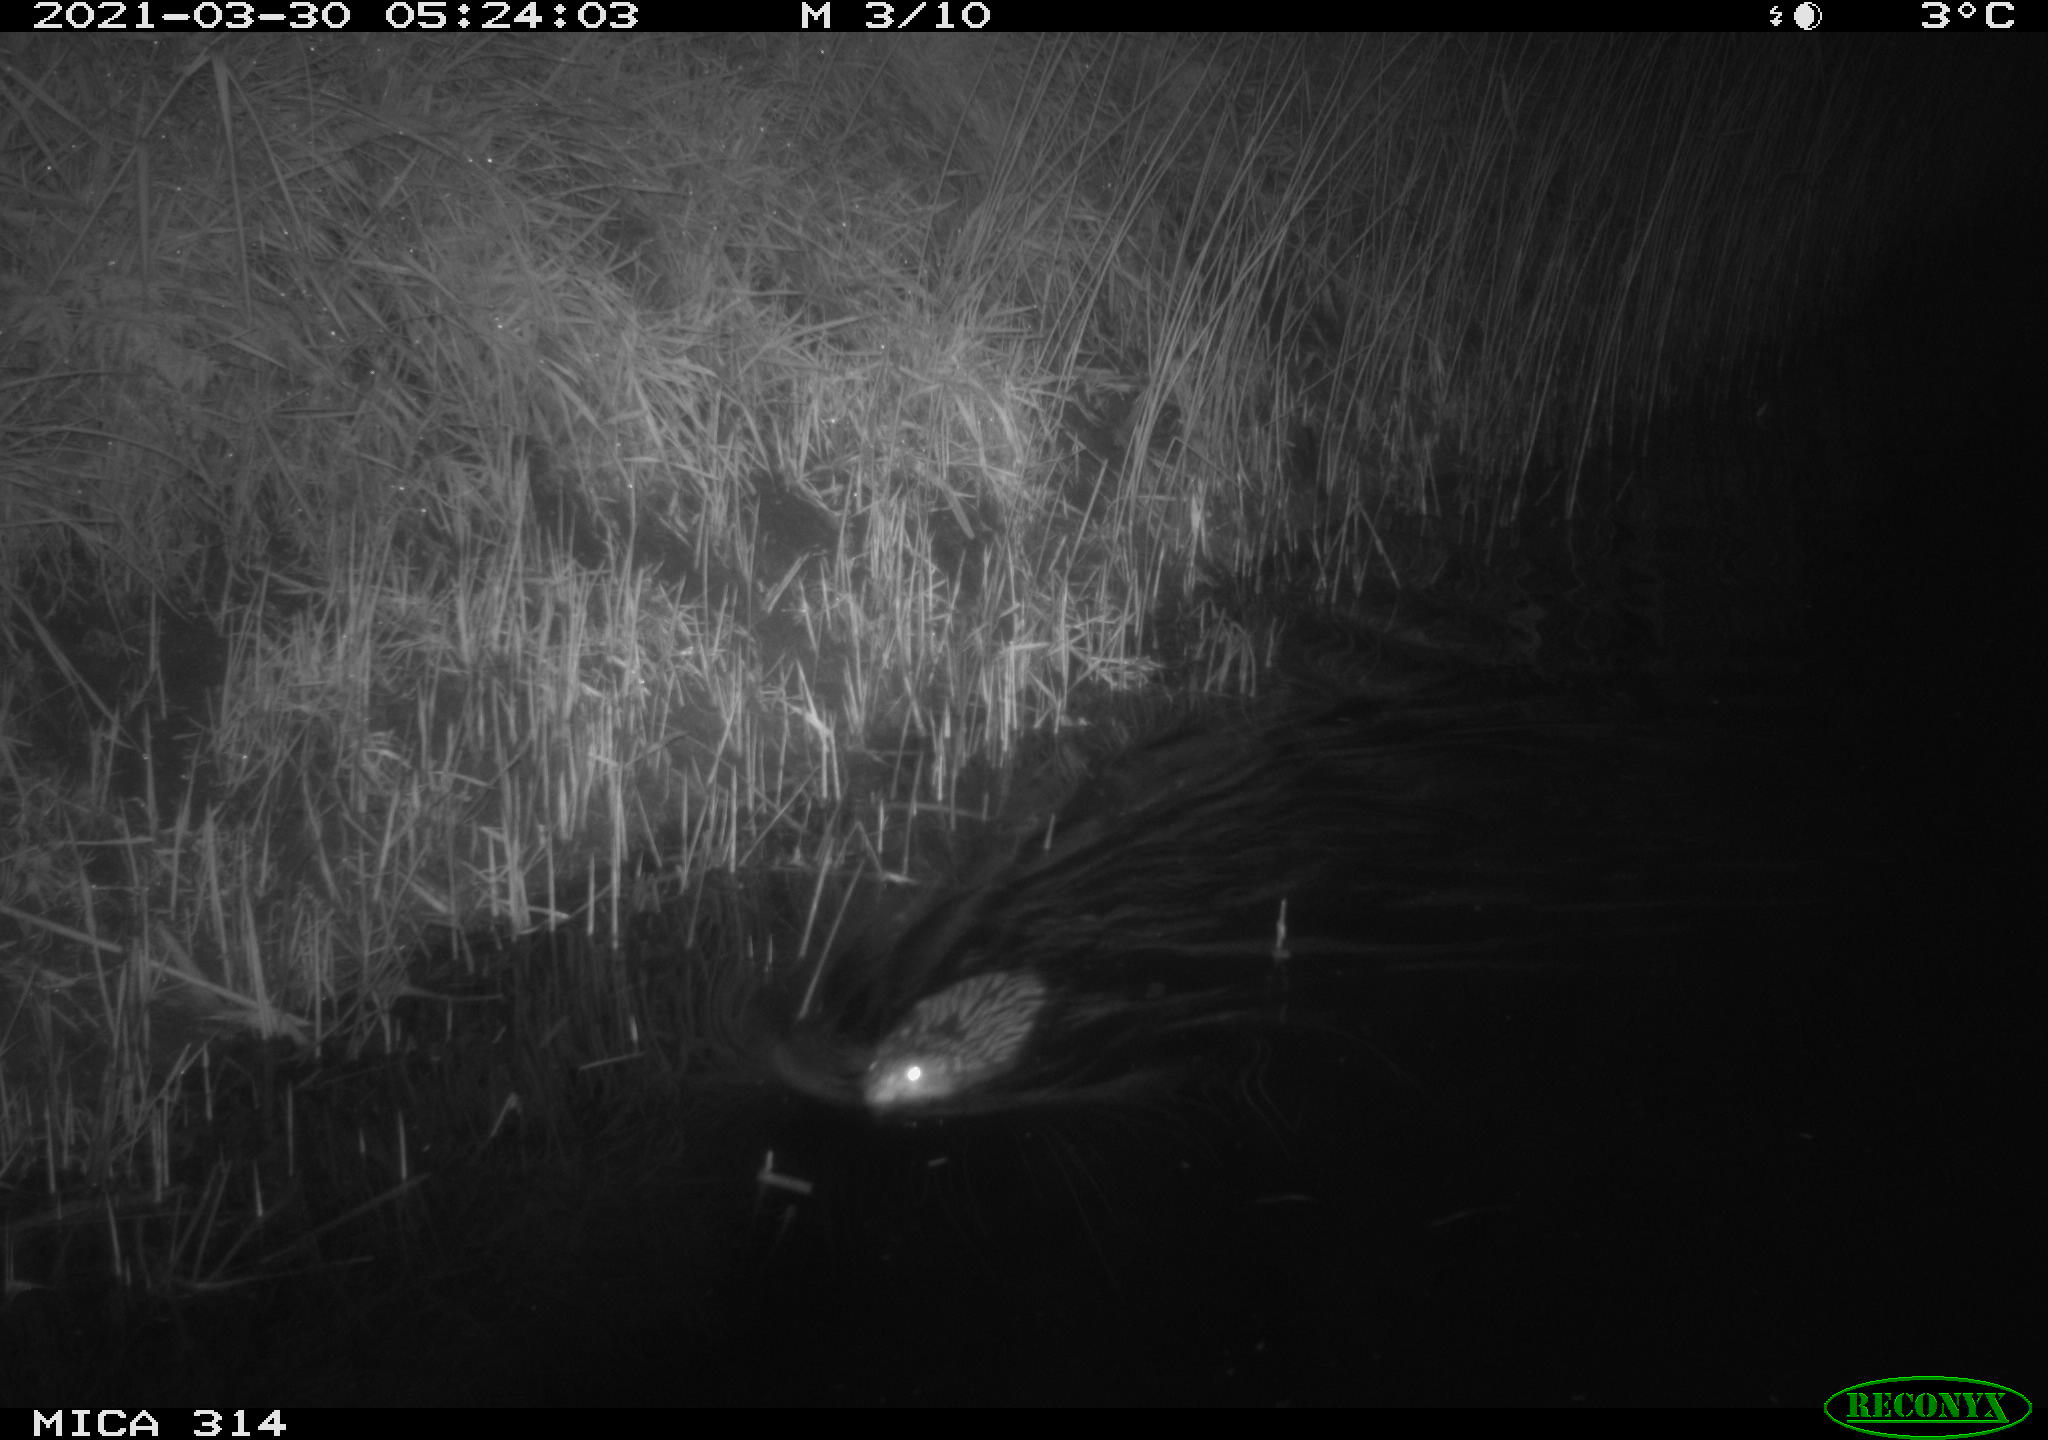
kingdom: Animalia
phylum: Chordata
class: Mammalia
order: Rodentia
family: Cricetidae
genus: Ondatra
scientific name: Ondatra zibethicus
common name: Muskrat
